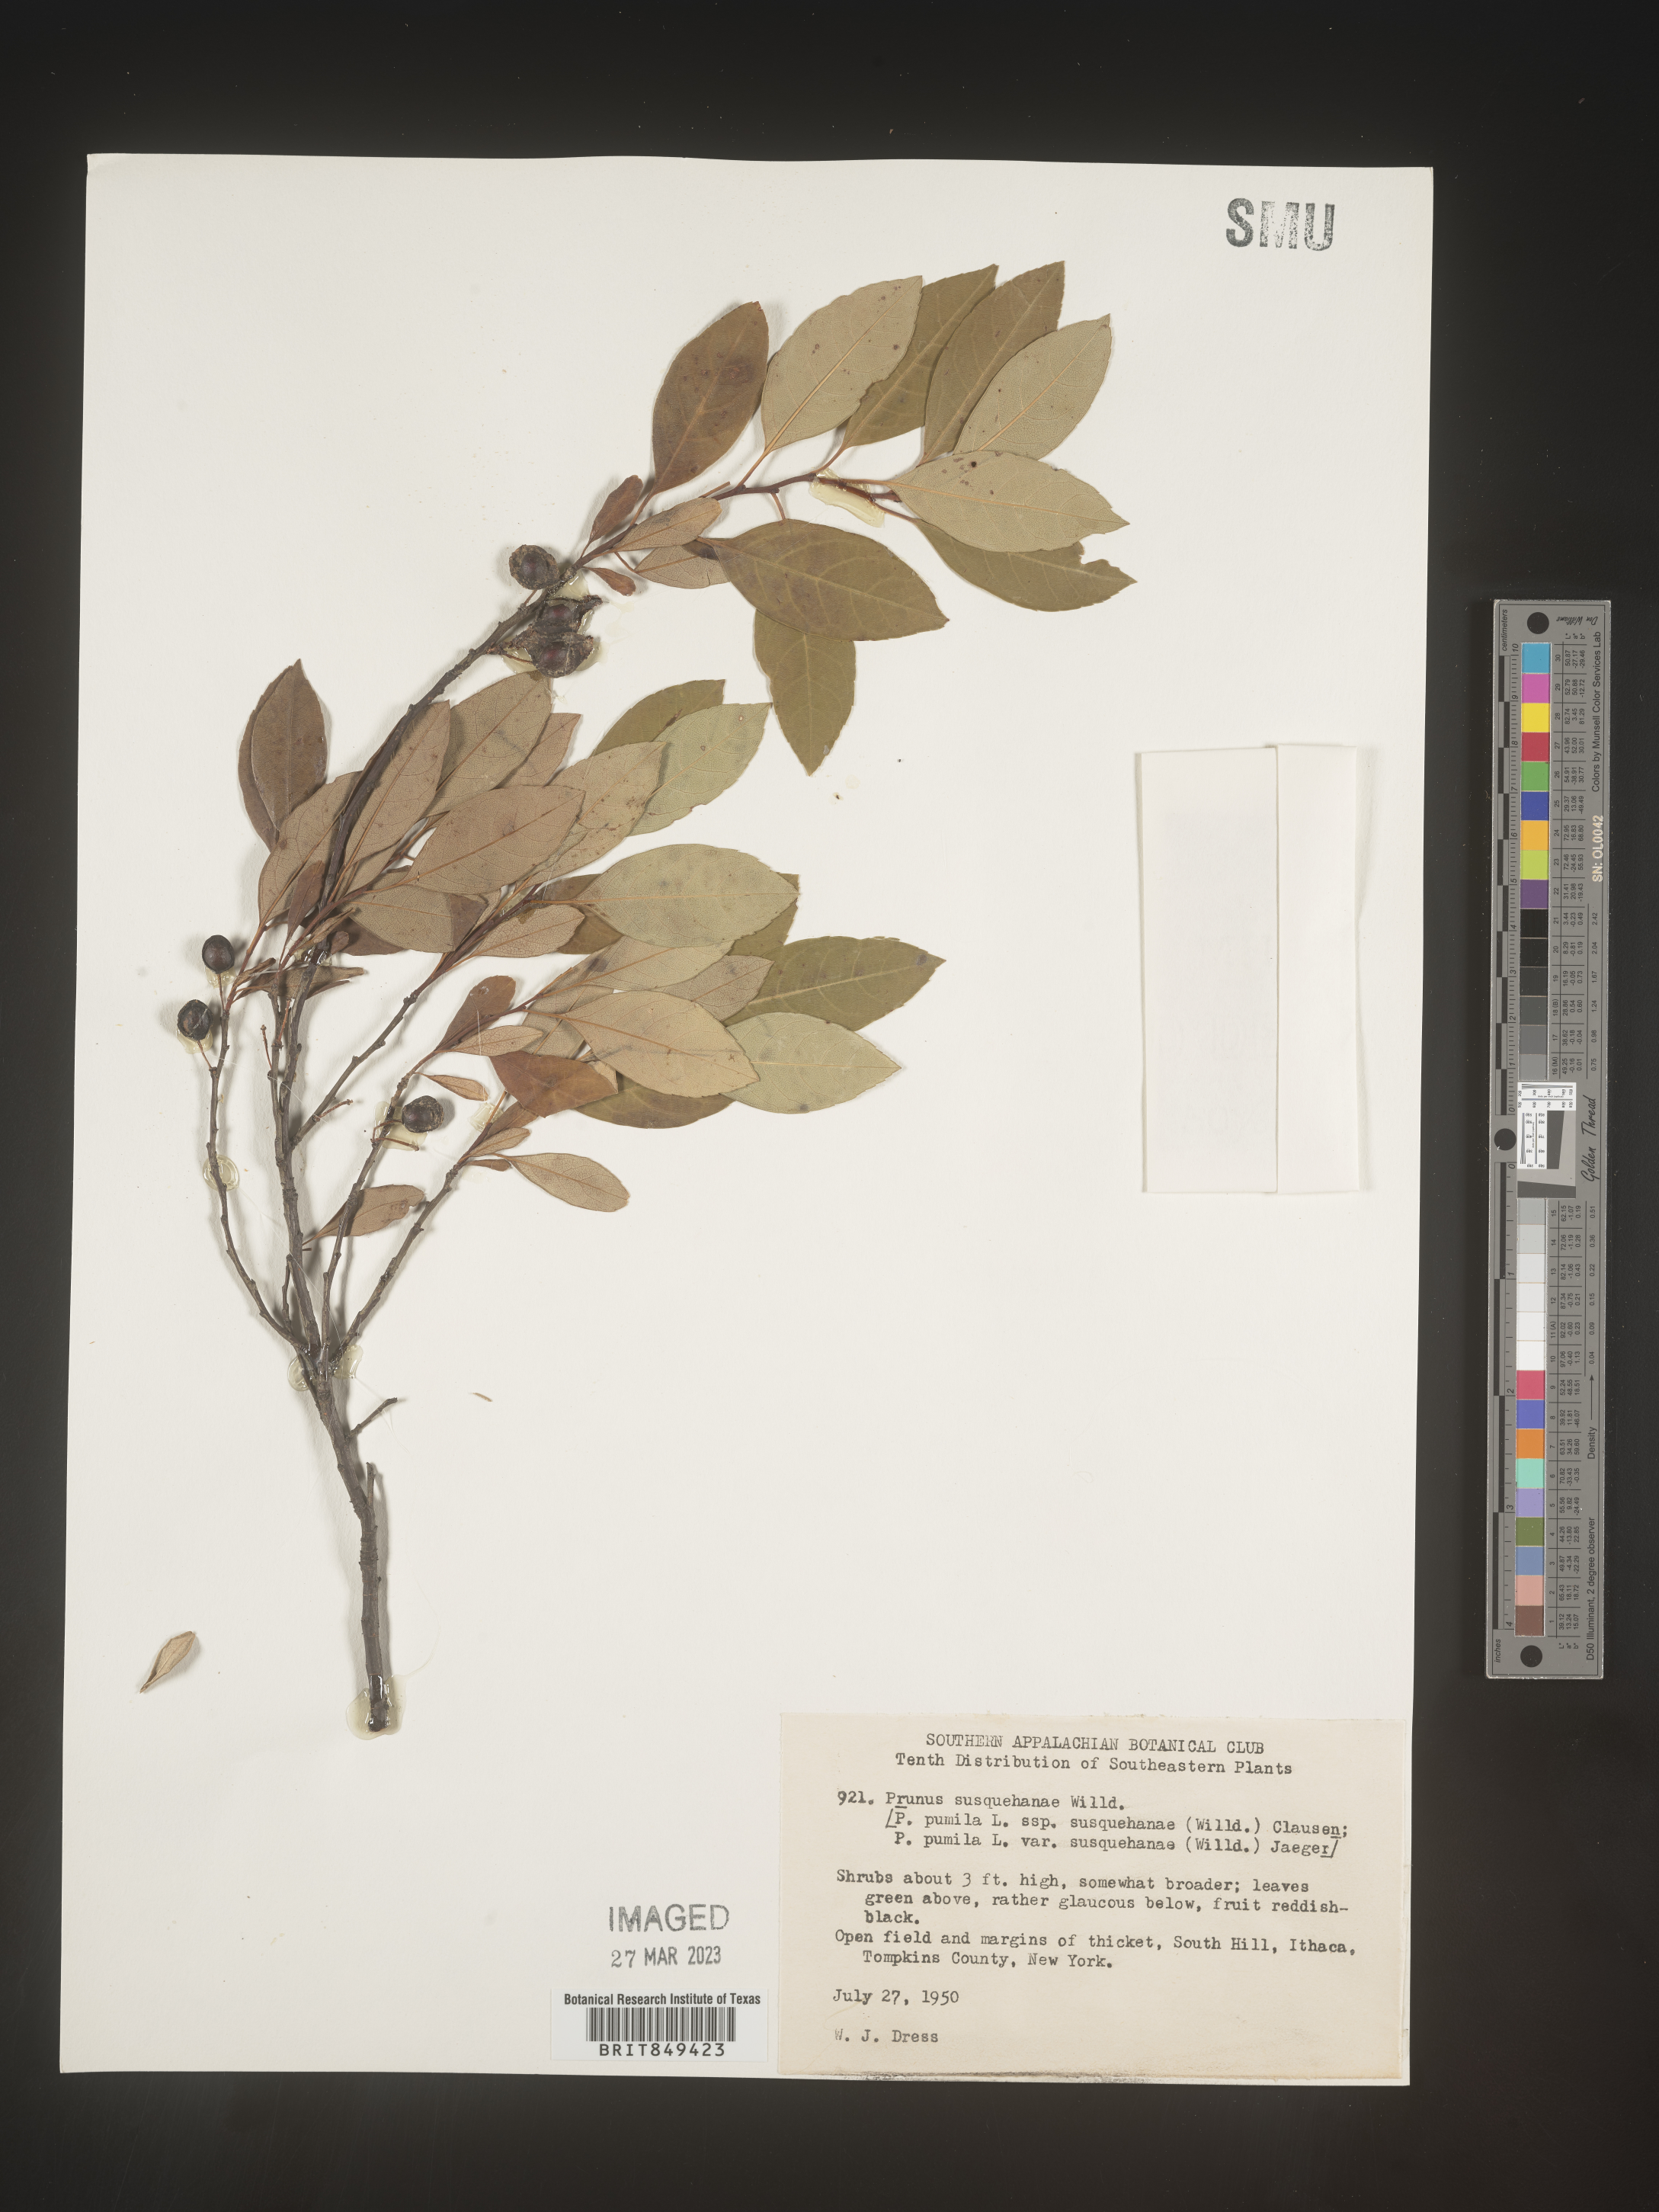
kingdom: Plantae
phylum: Tracheophyta
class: Magnoliopsida
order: Rosales
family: Rosaceae
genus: Prunus
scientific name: Prunus pumila
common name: Dwarf cherry
